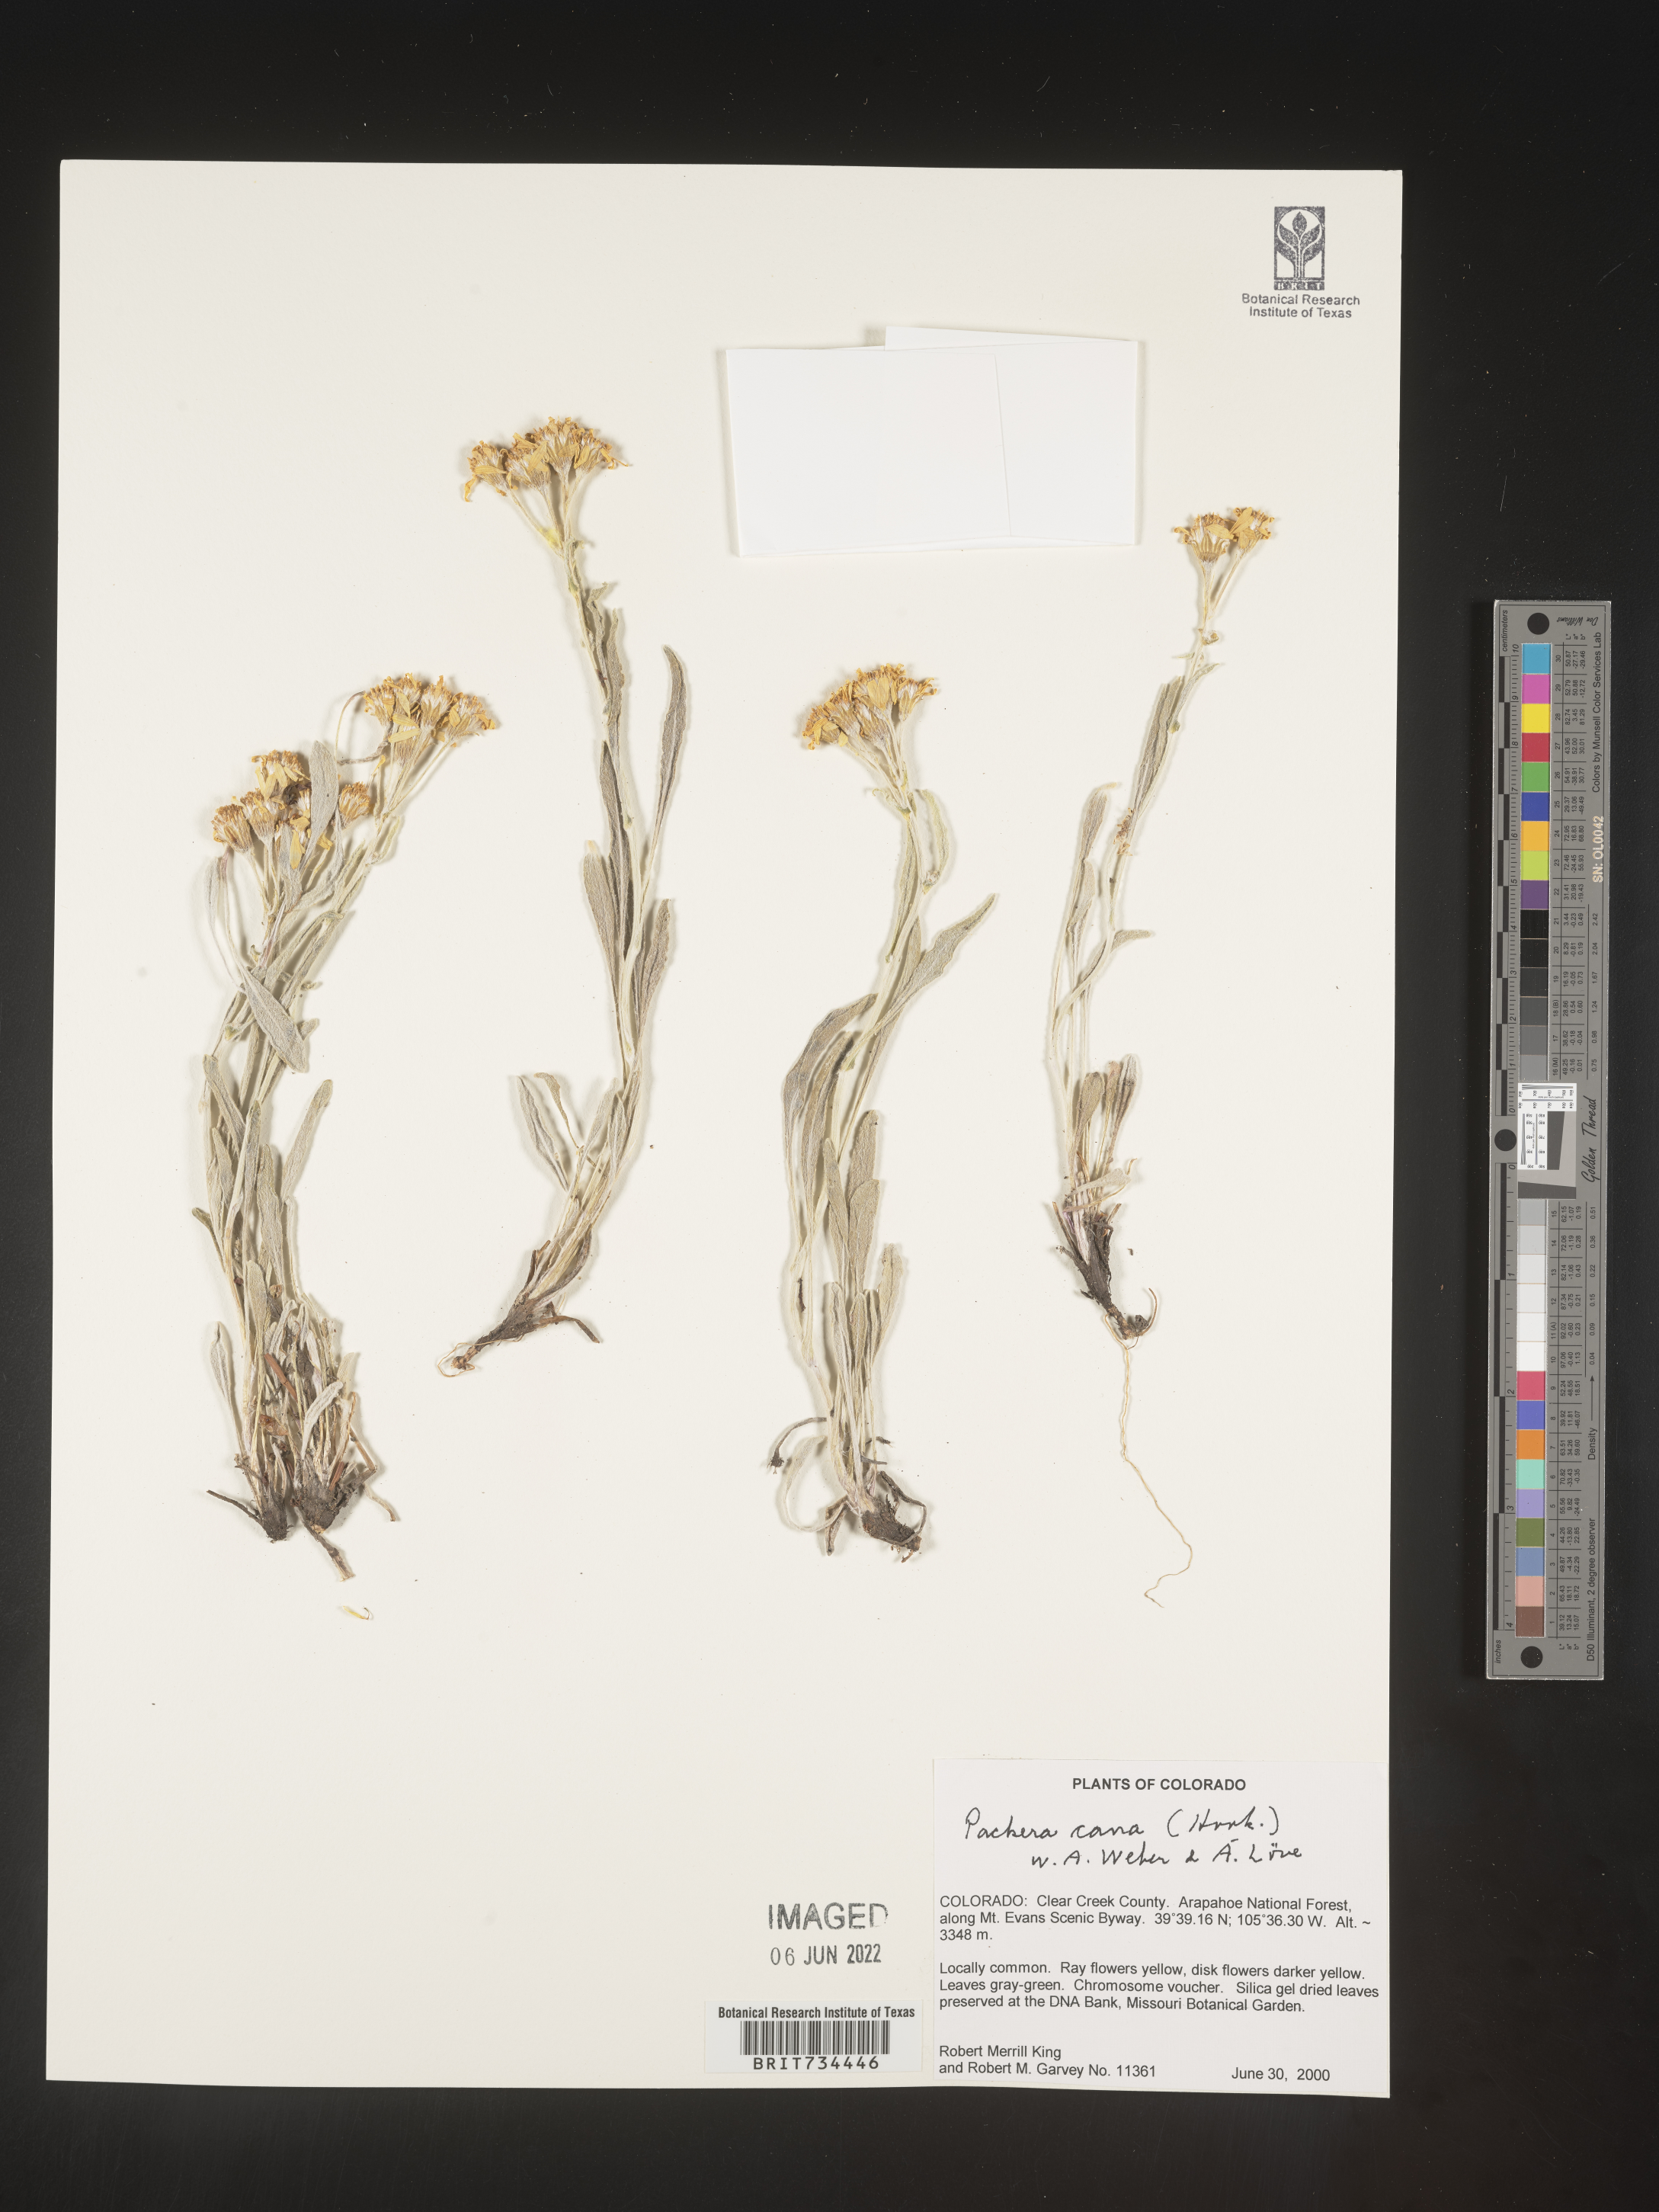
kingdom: Plantae
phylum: Tracheophyta
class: Magnoliopsida
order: Asterales
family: Asteraceae
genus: Packera
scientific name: Packera cana
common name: Woolly groundsel
